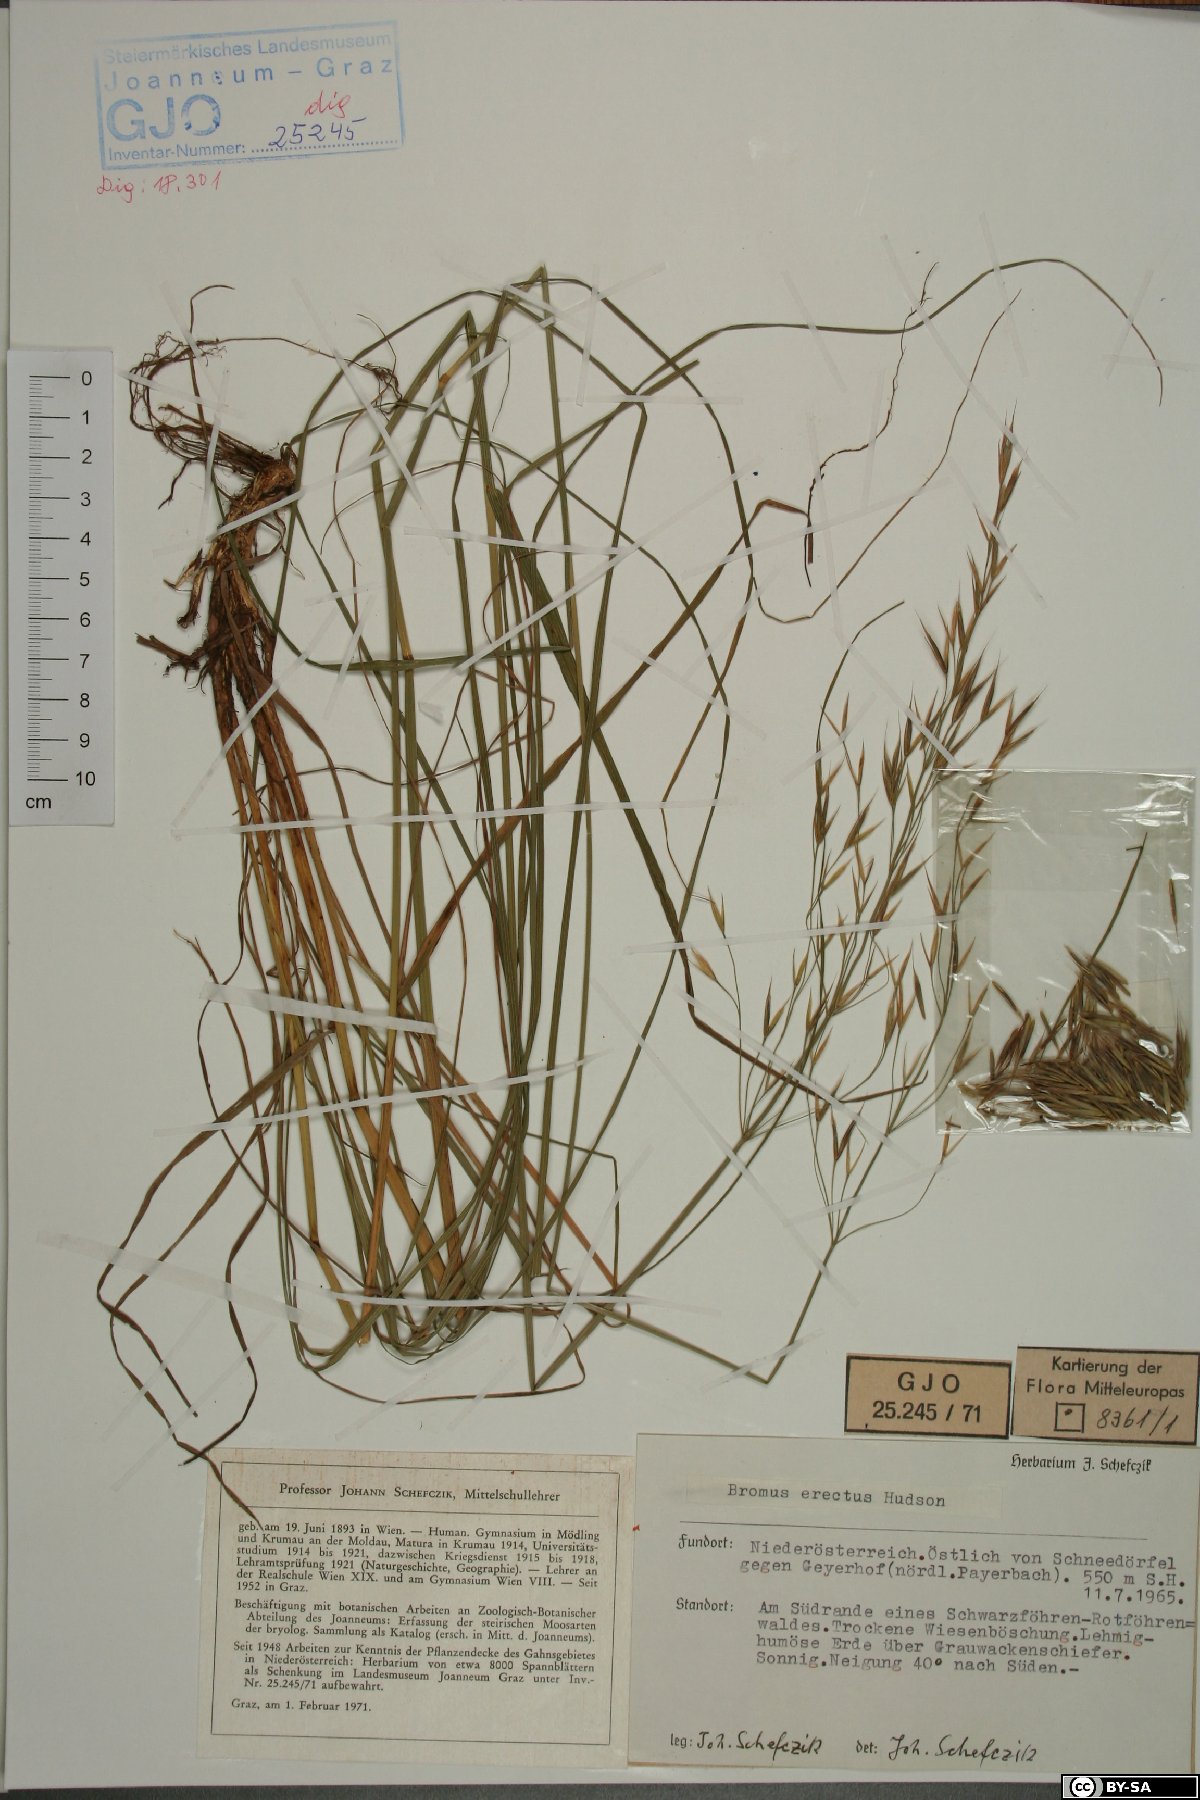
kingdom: Plantae
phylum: Tracheophyta
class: Liliopsida
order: Poales
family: Poaceae
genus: Bromus
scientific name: Bromus erectus
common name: Erect brome
